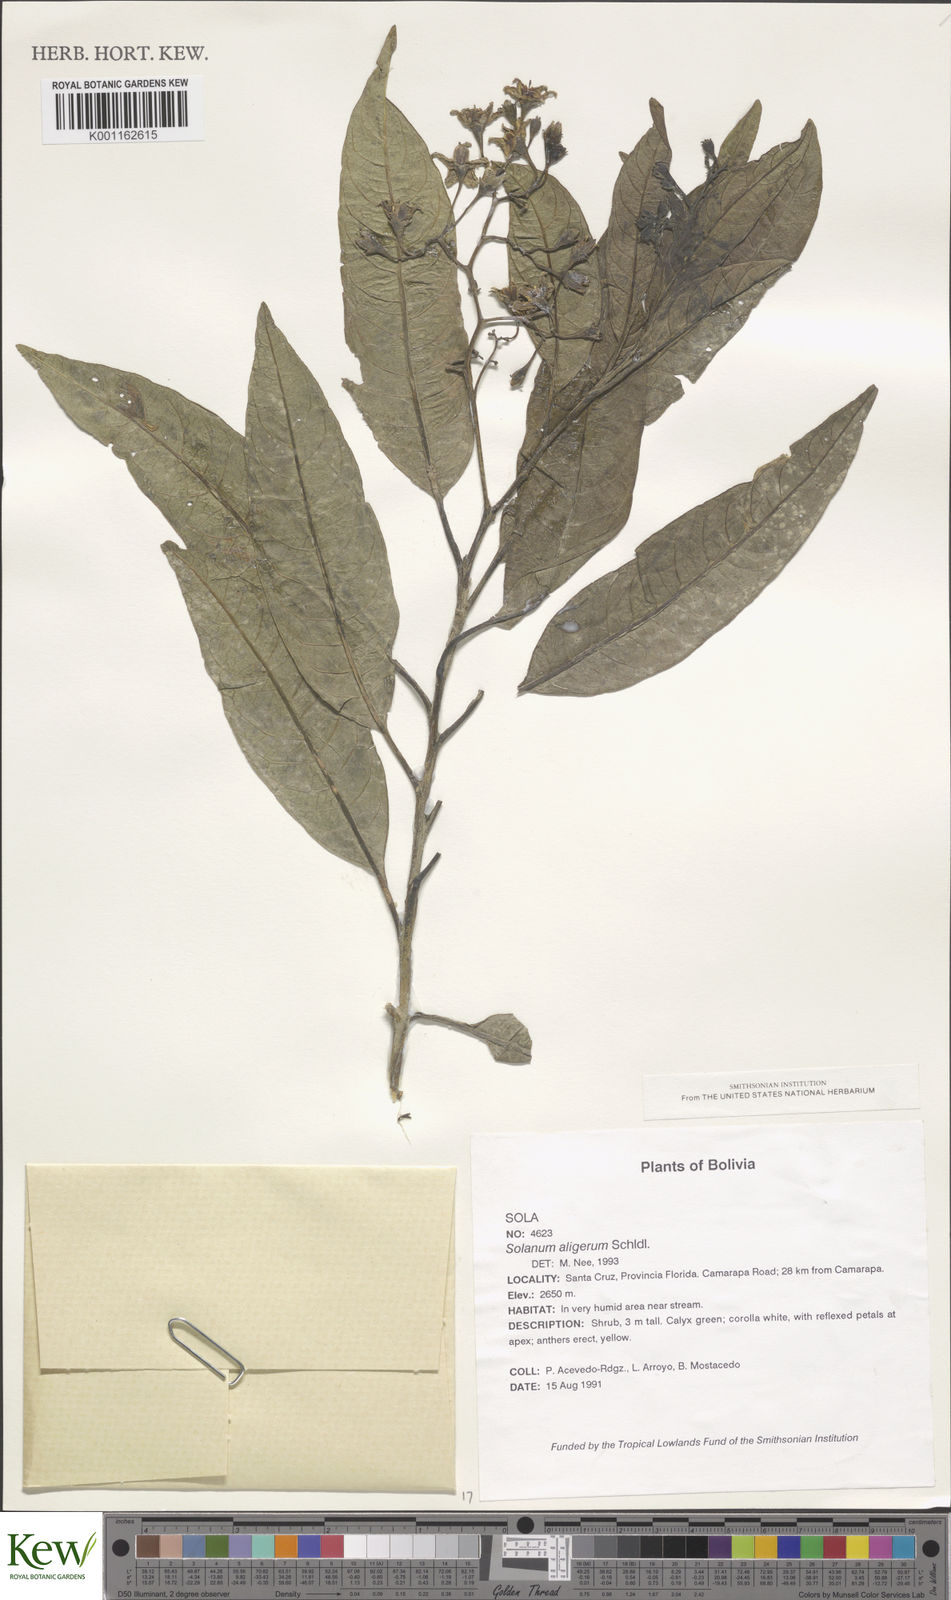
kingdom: Plantae
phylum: Tracheophyta
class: Magnoliopsida
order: Solanales
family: Solanaceae
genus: Solanum
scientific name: Solanum aligerum
